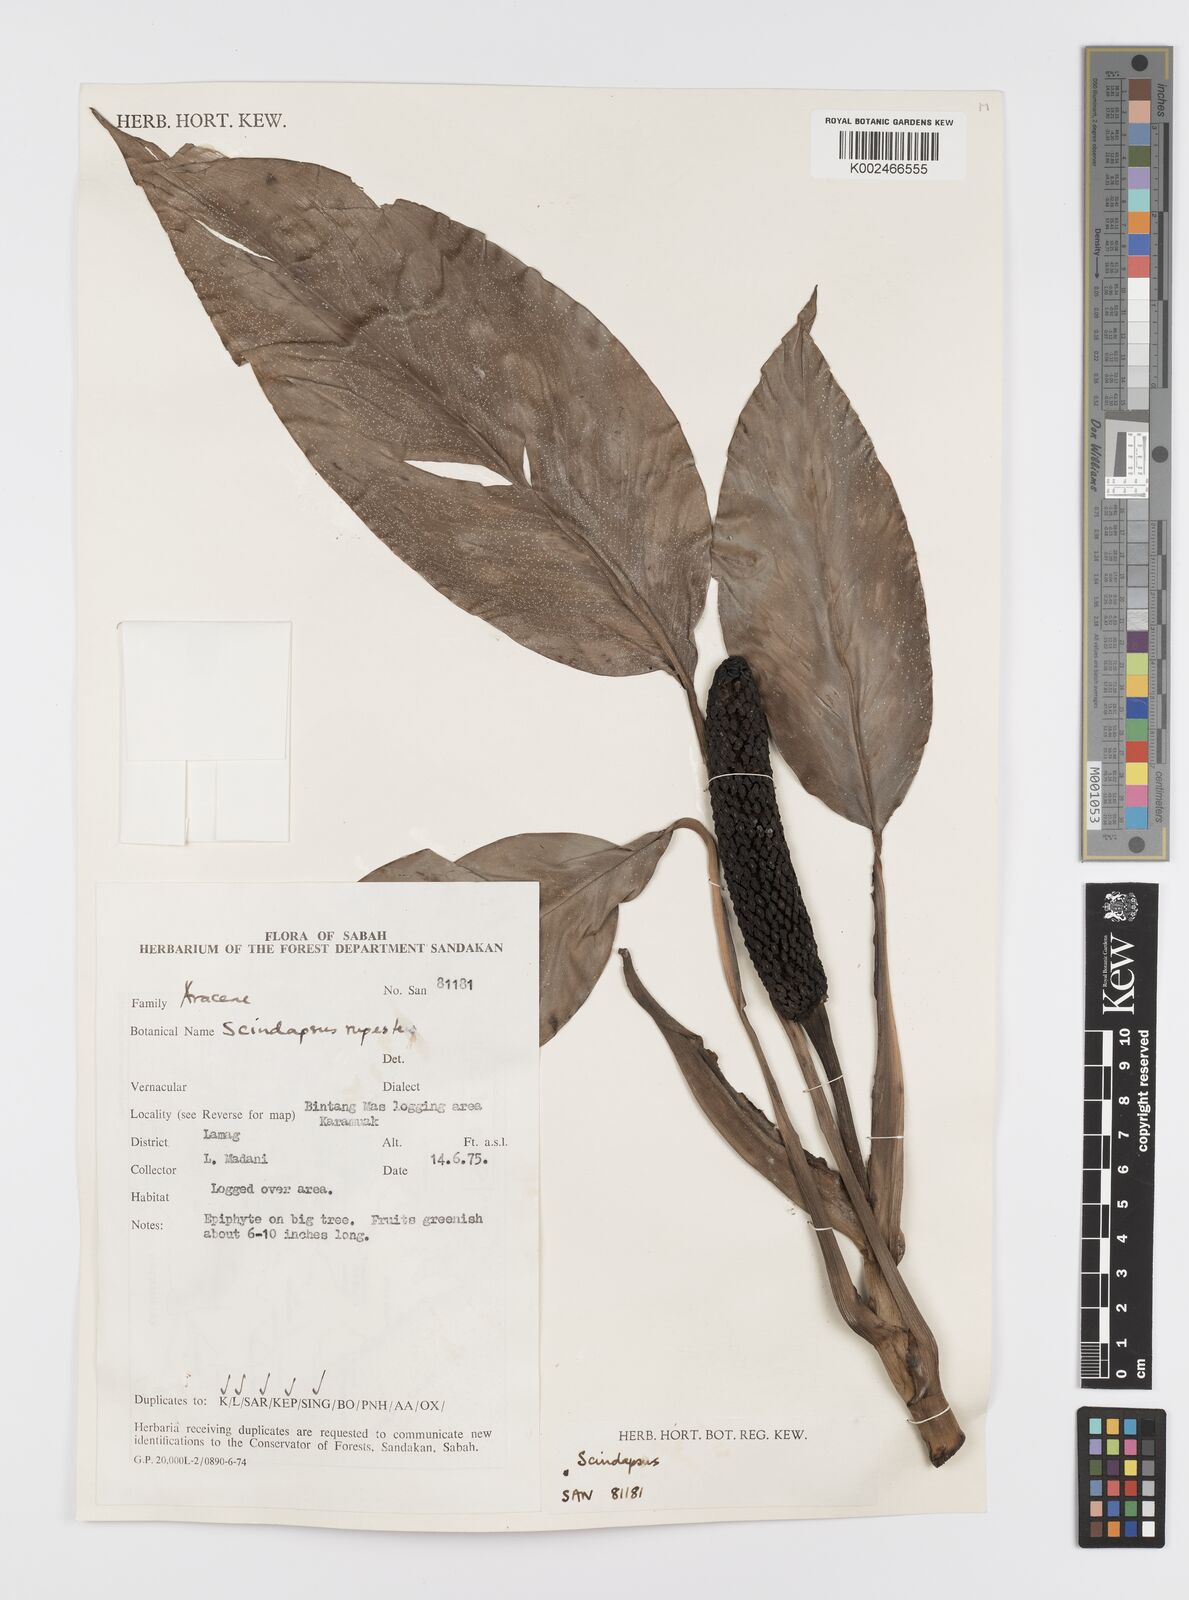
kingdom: Plantae
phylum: Tracheophyta
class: Liliopsida
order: Alismatales
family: Araceae
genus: Scindapsus
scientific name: Scindapsus coriaceus
